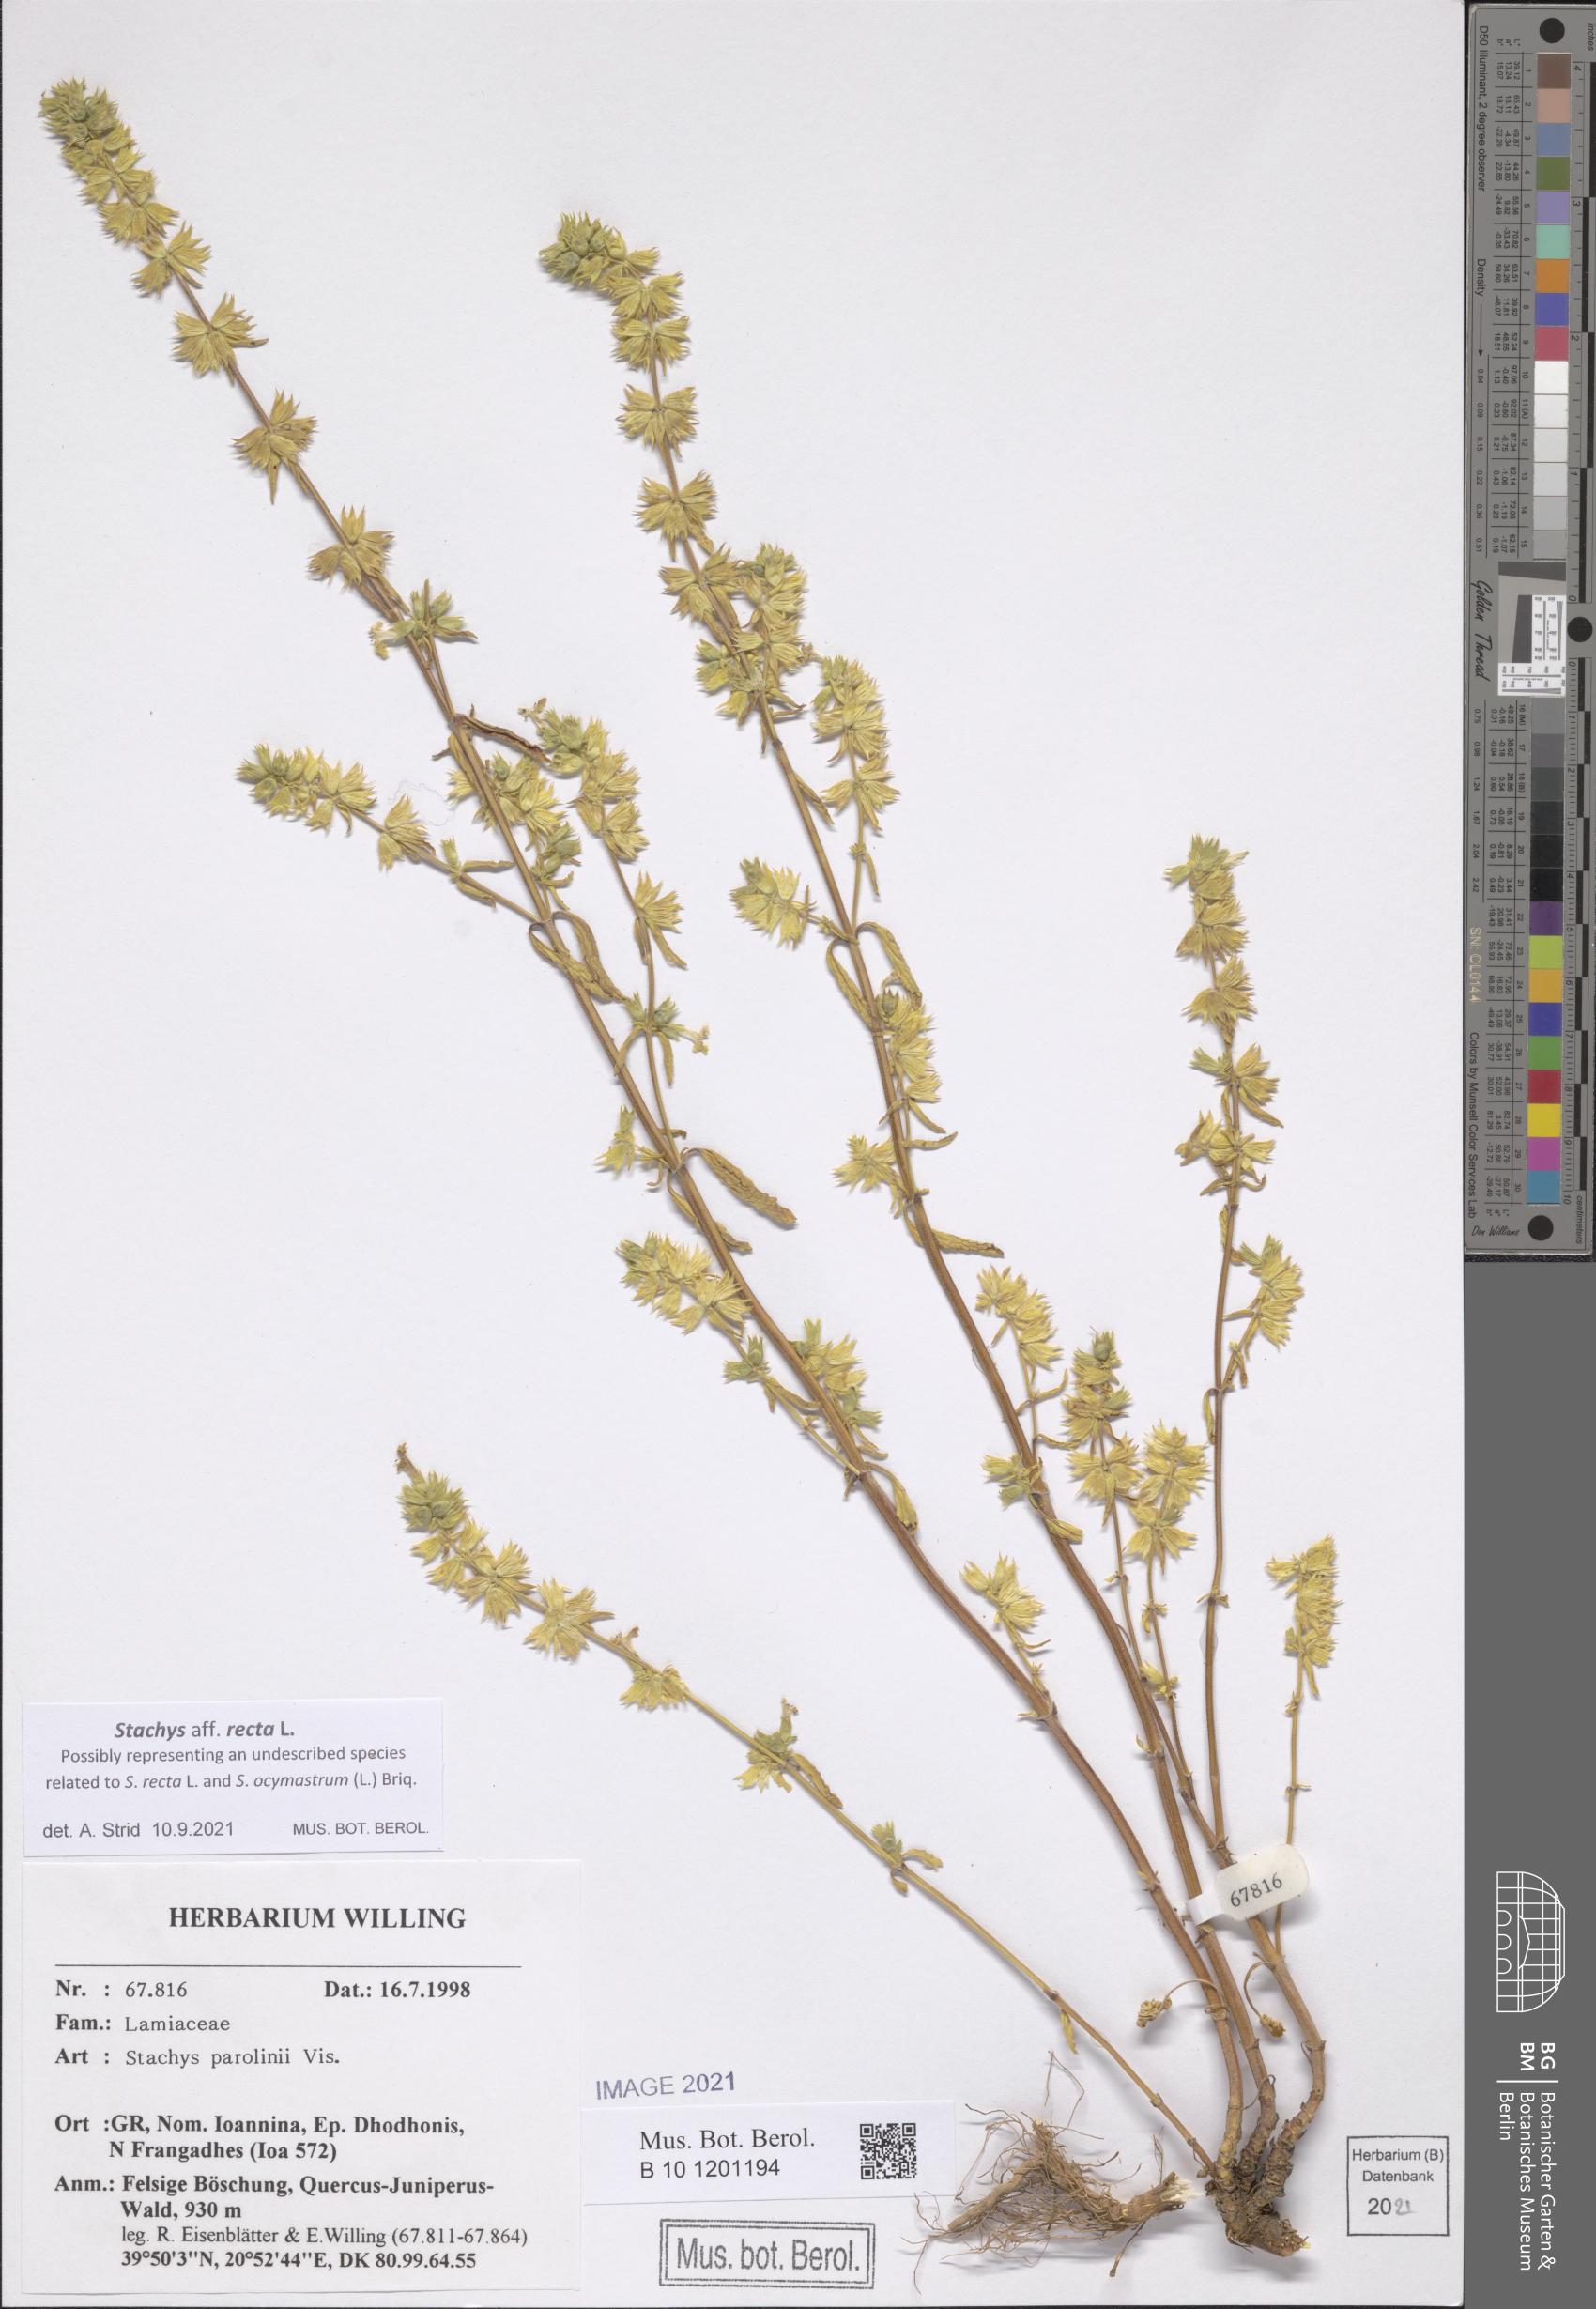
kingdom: Plantae
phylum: Tracheophyta
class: Magnoliopsida
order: Lamiales
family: Lamiaceae
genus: Stachys
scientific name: Stachys recta
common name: Perennial yellow-woundwort
